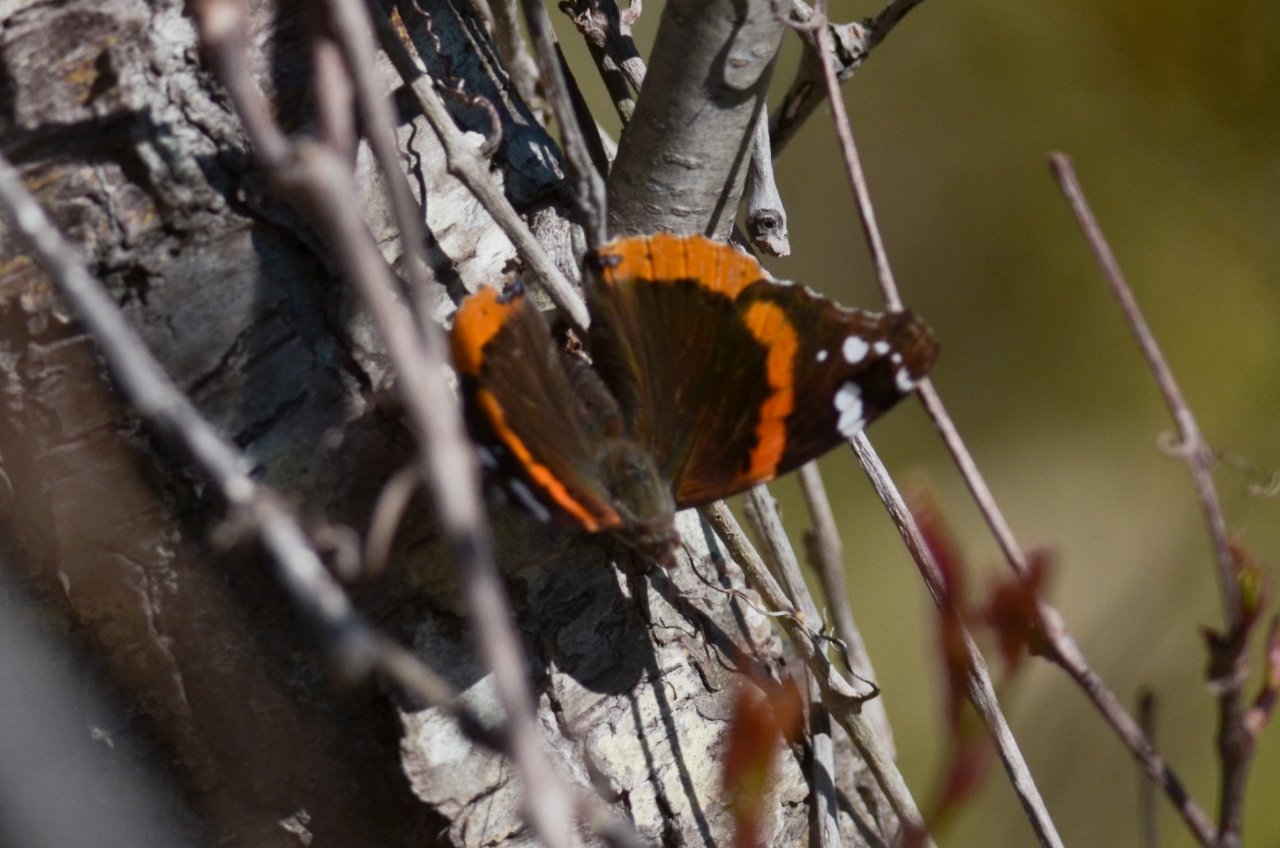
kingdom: Animalia
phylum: Arthropoda
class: Insecta
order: Lepidoptera
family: Nymphalidae
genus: Vanessa
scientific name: Vanessa atalanta
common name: Red Admiral
